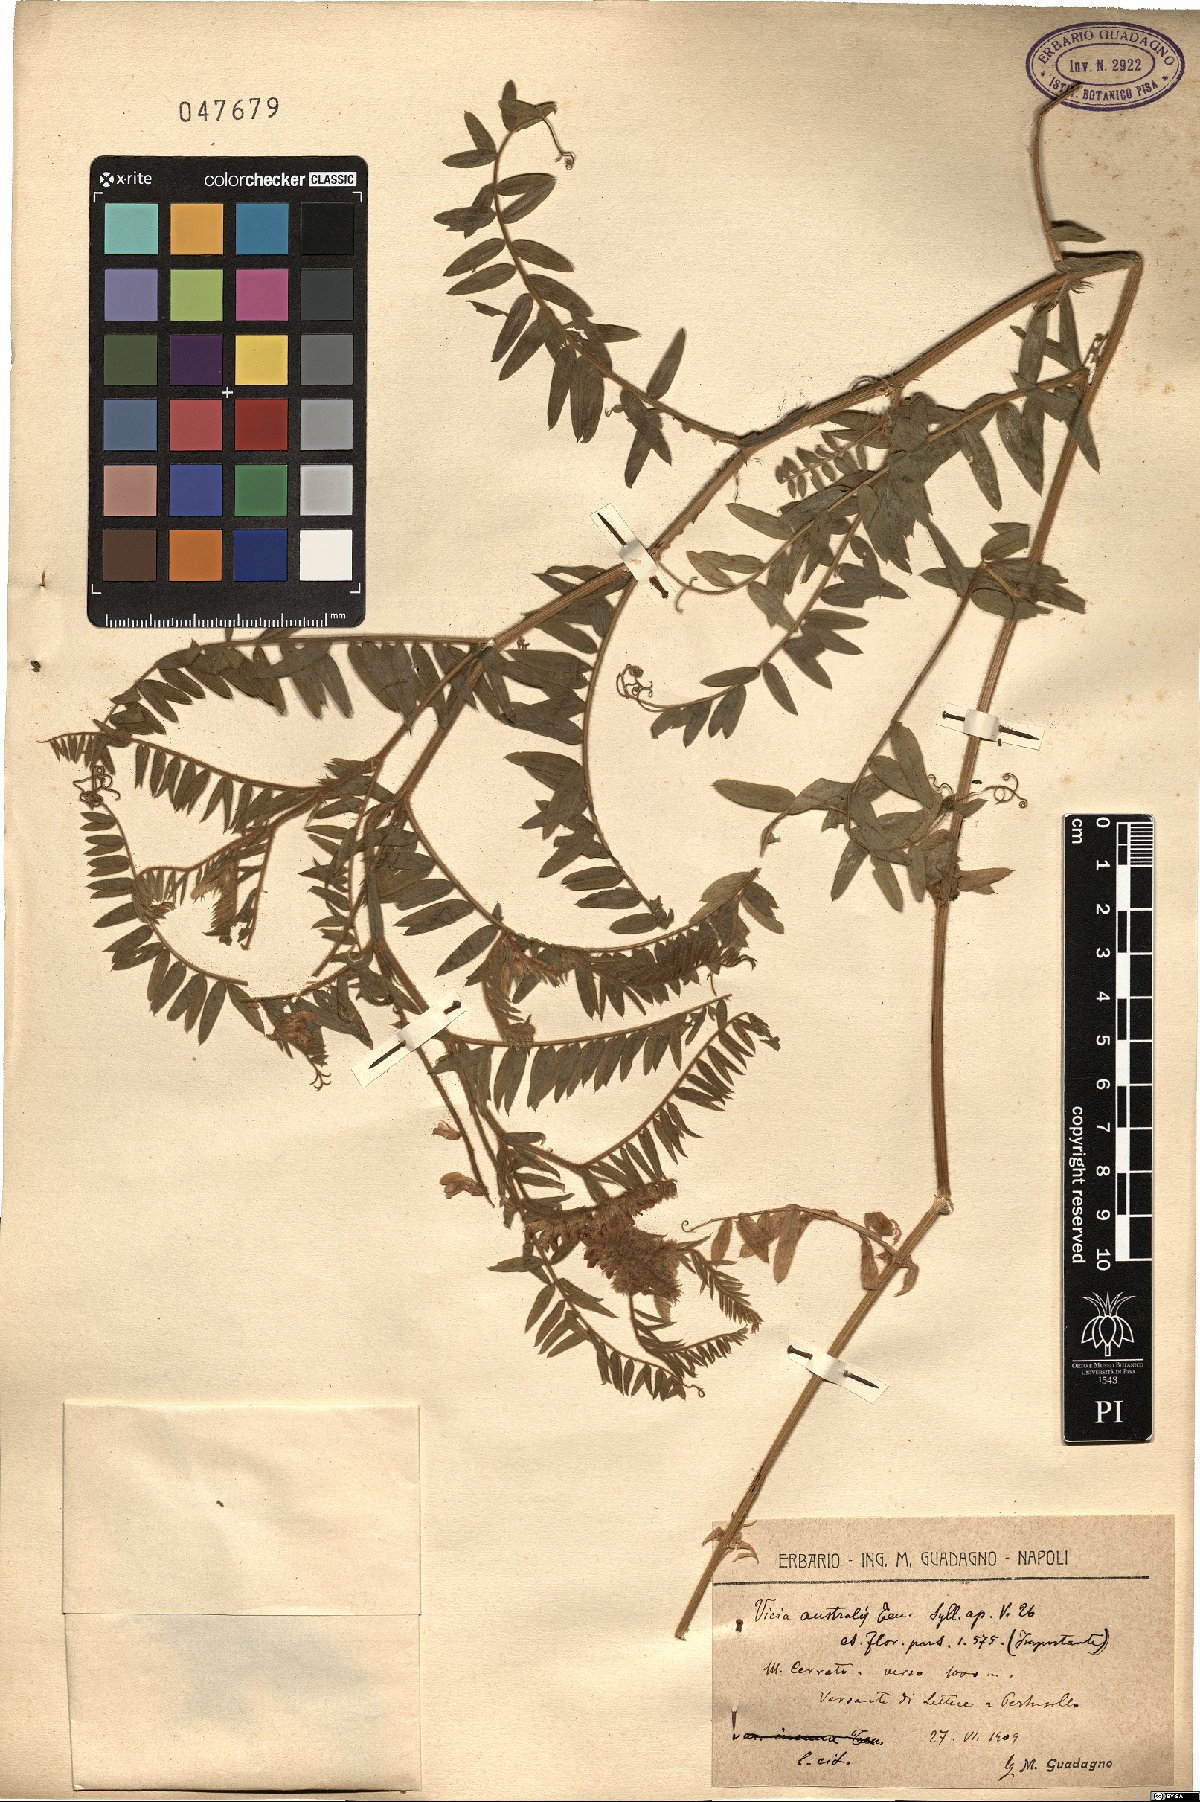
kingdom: Plantae
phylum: Tracheophyta
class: Magnoliopsida
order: Fabales
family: Fabaceae
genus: Vicia
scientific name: Vicia cracca
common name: Bird vetch
